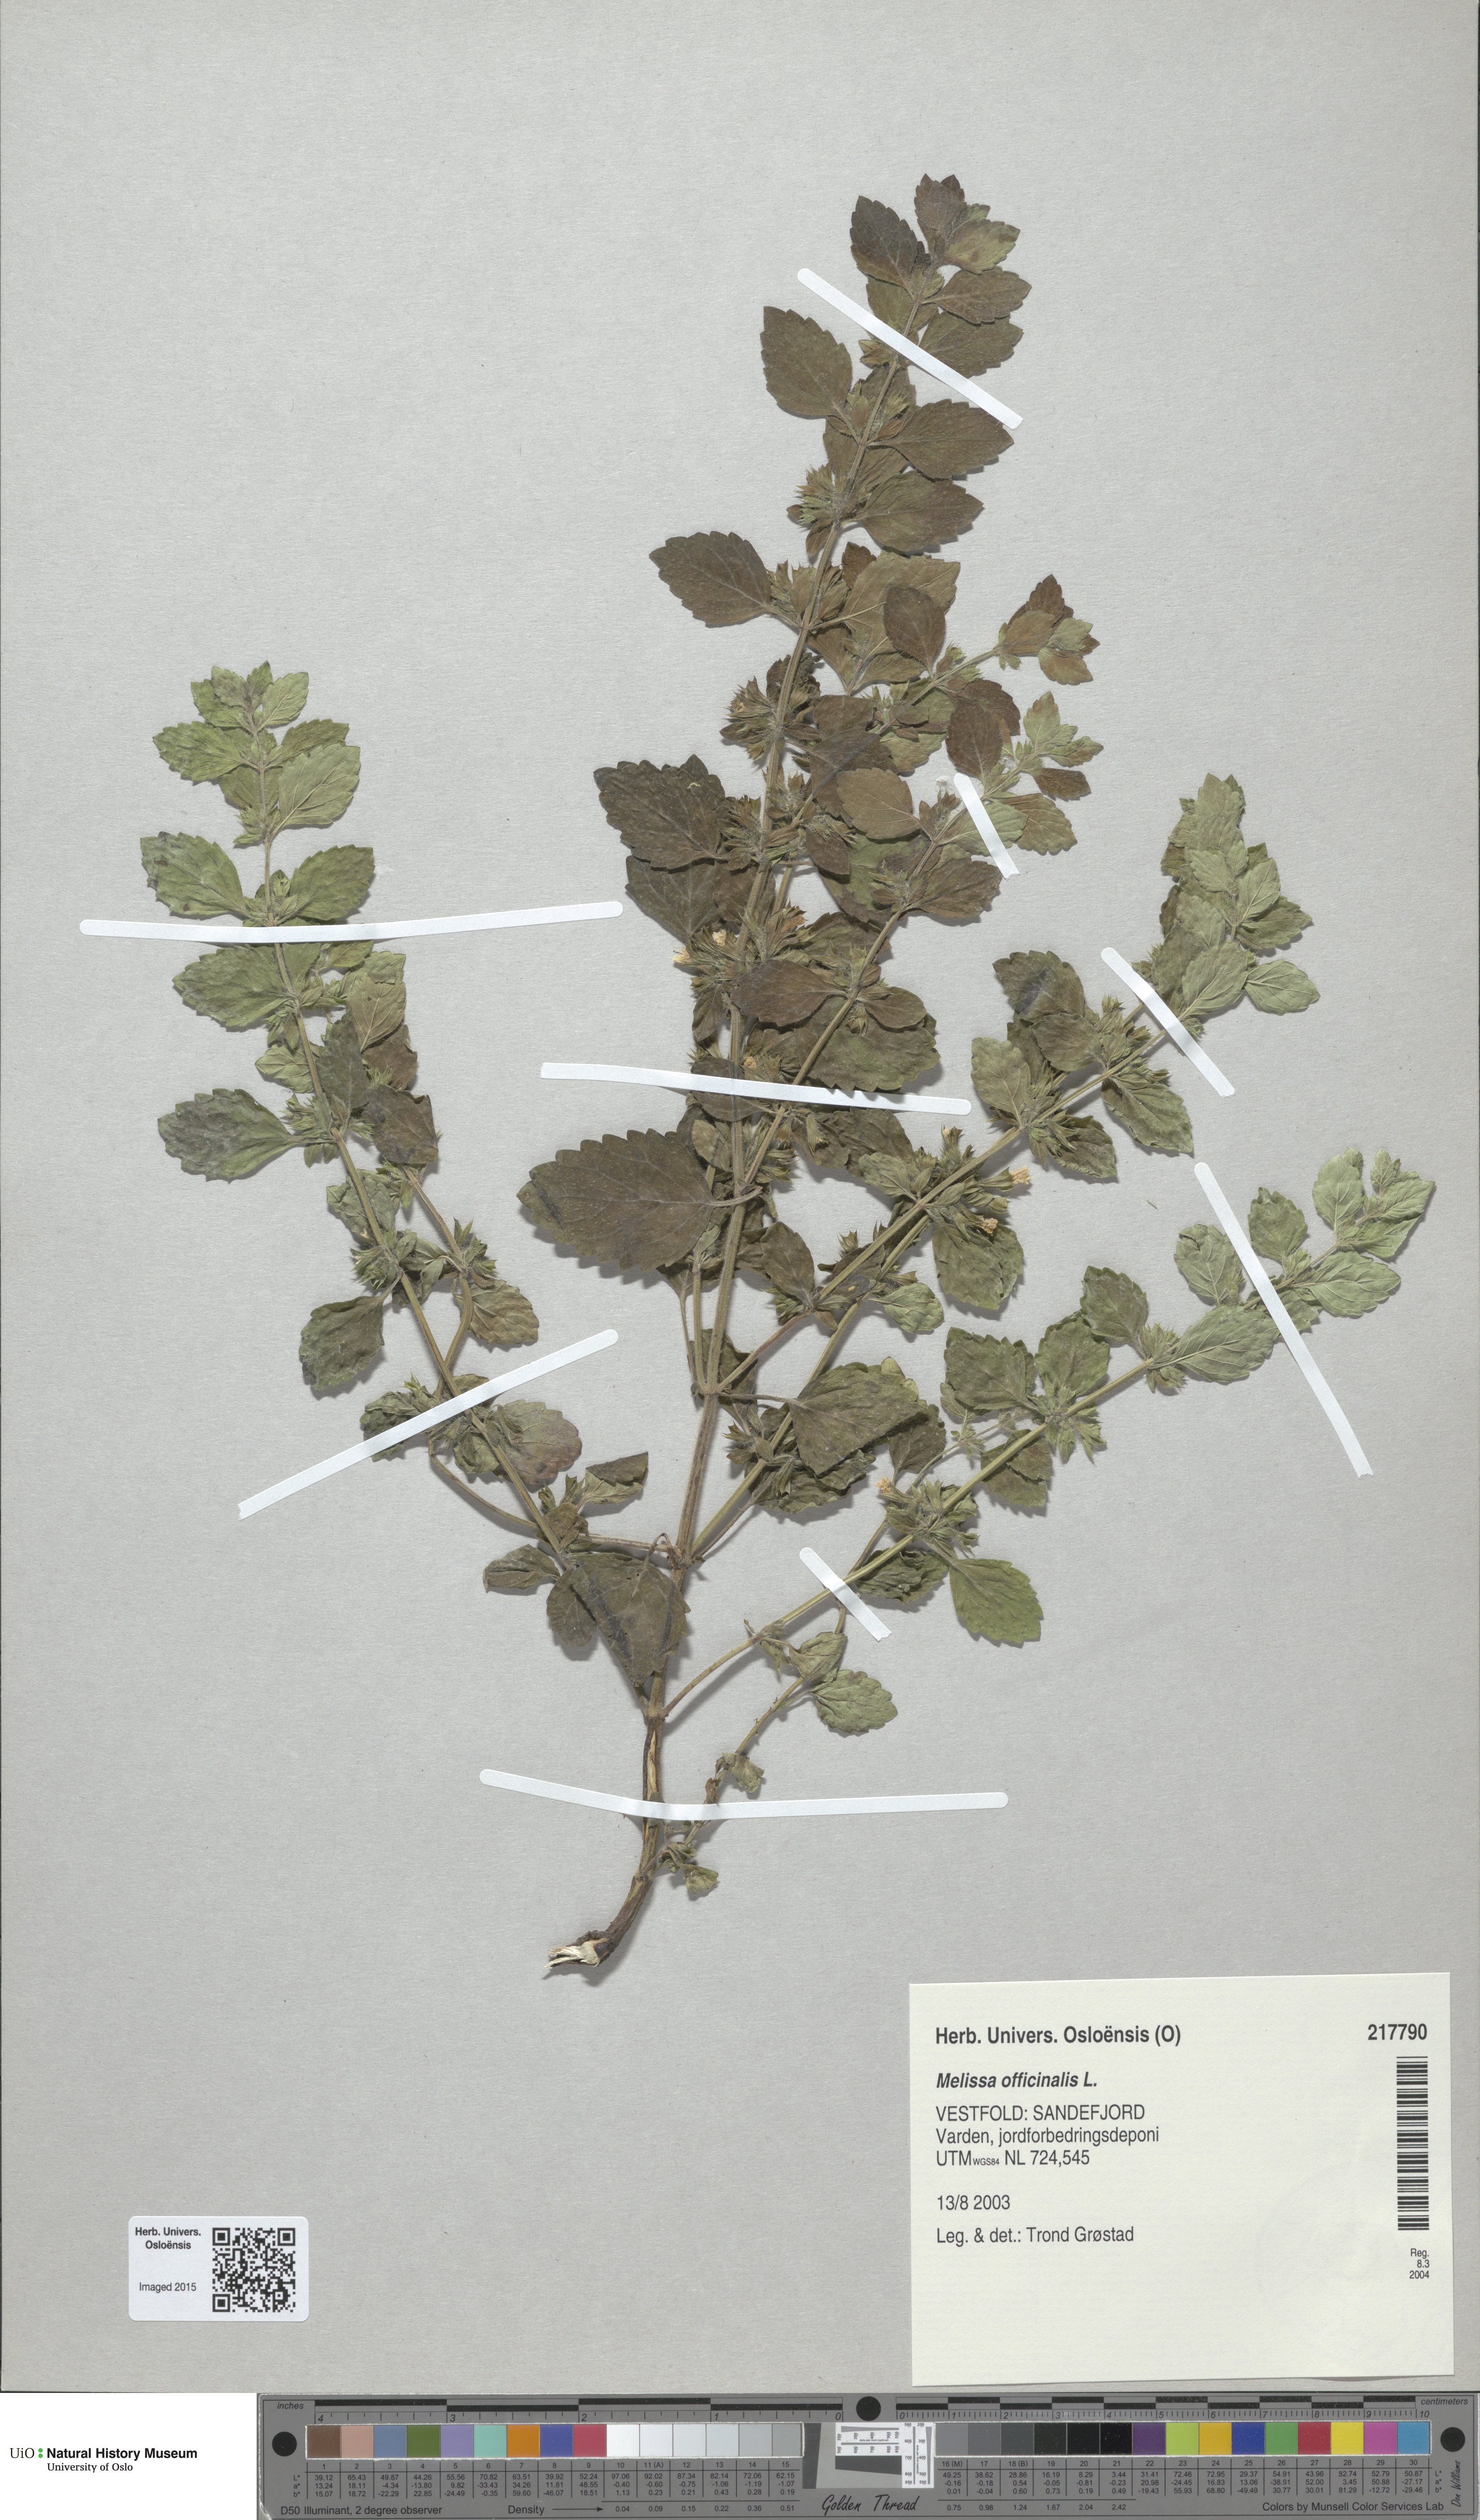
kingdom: Plantae
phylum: Tracheophyta
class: Magnoliopsida
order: Lamiales
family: Lamiaceae
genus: Melissa
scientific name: Melissa officinalis
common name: Balm
